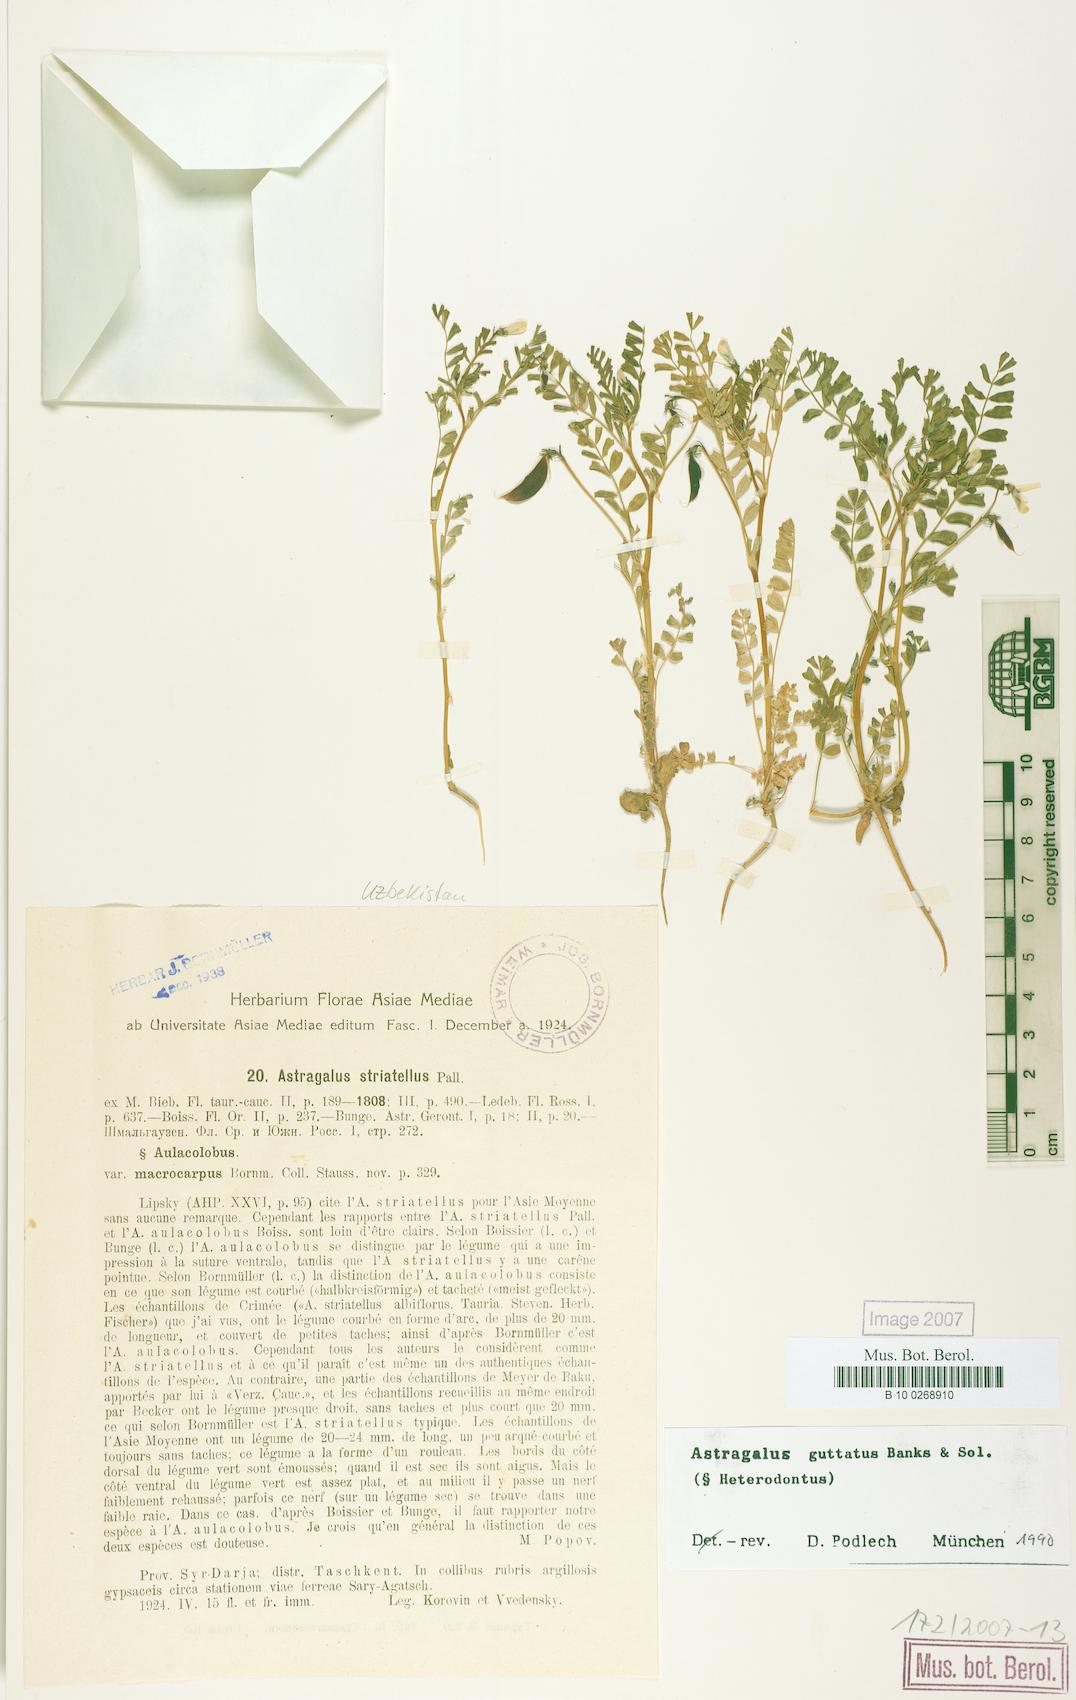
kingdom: Plantae
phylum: Tracheophyta
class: Magnoliopsida
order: Fabales
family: Fabaceae
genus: Astragalus
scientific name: Astragalus guttatus
